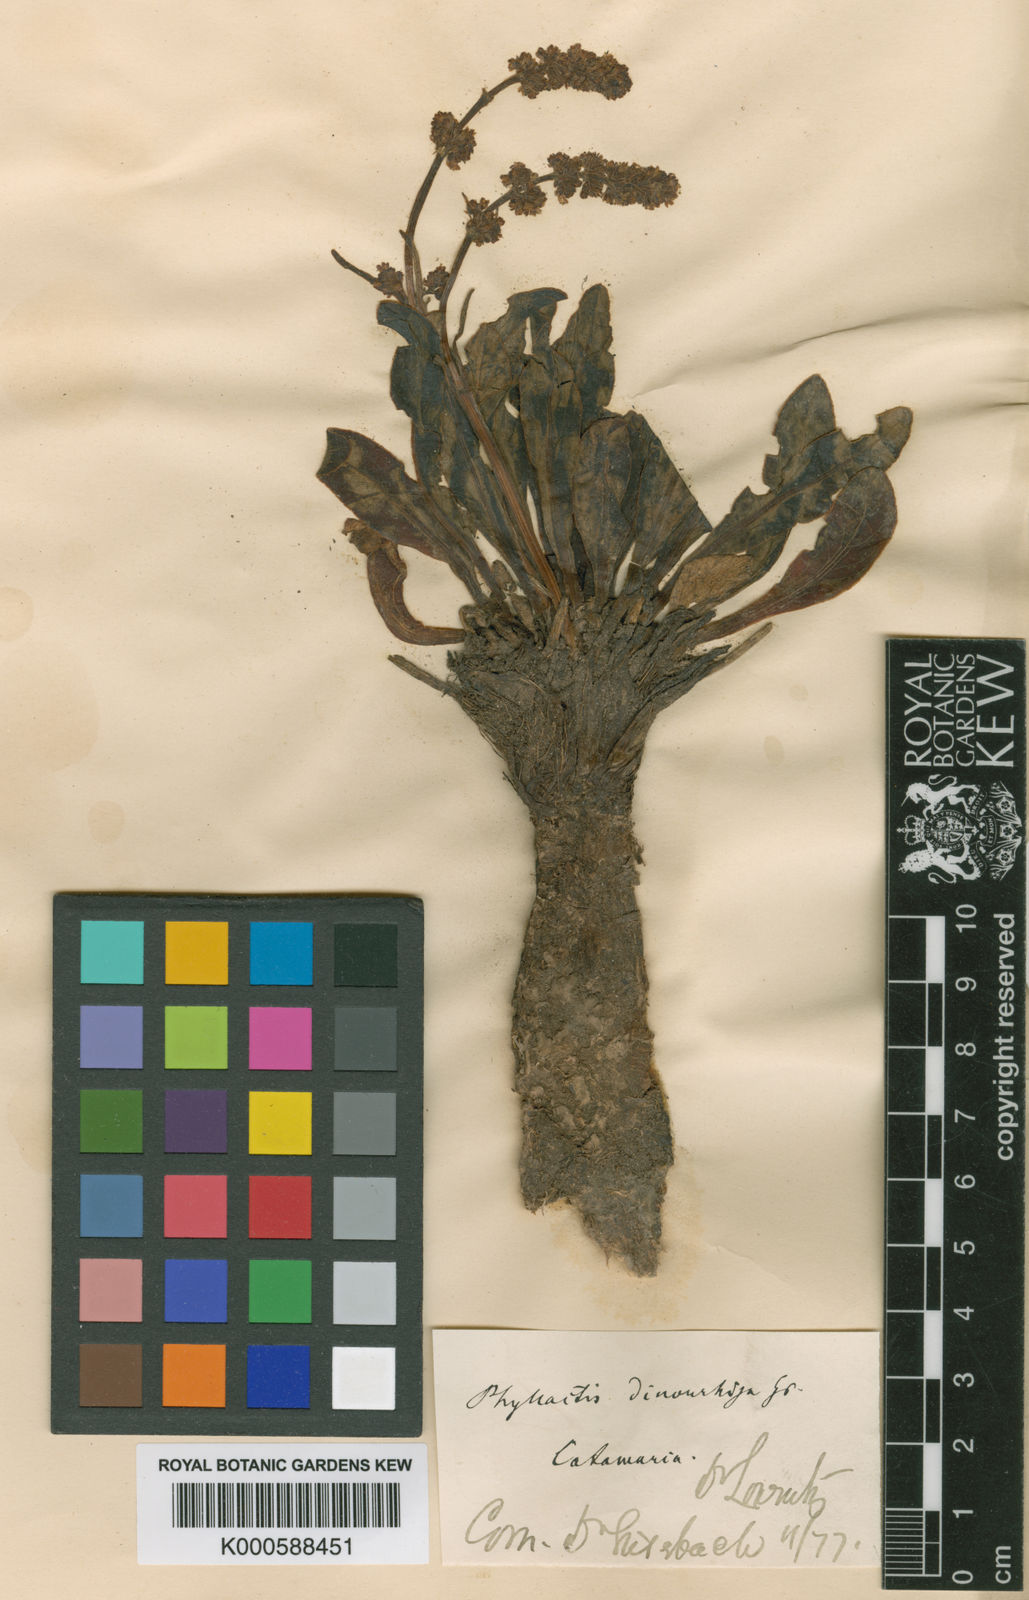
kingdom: Plantae
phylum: Tracheophyta
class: Magnoliopsida
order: Dipsacales
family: Caprifoliaceae
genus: Valeriana
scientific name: Valeriana
